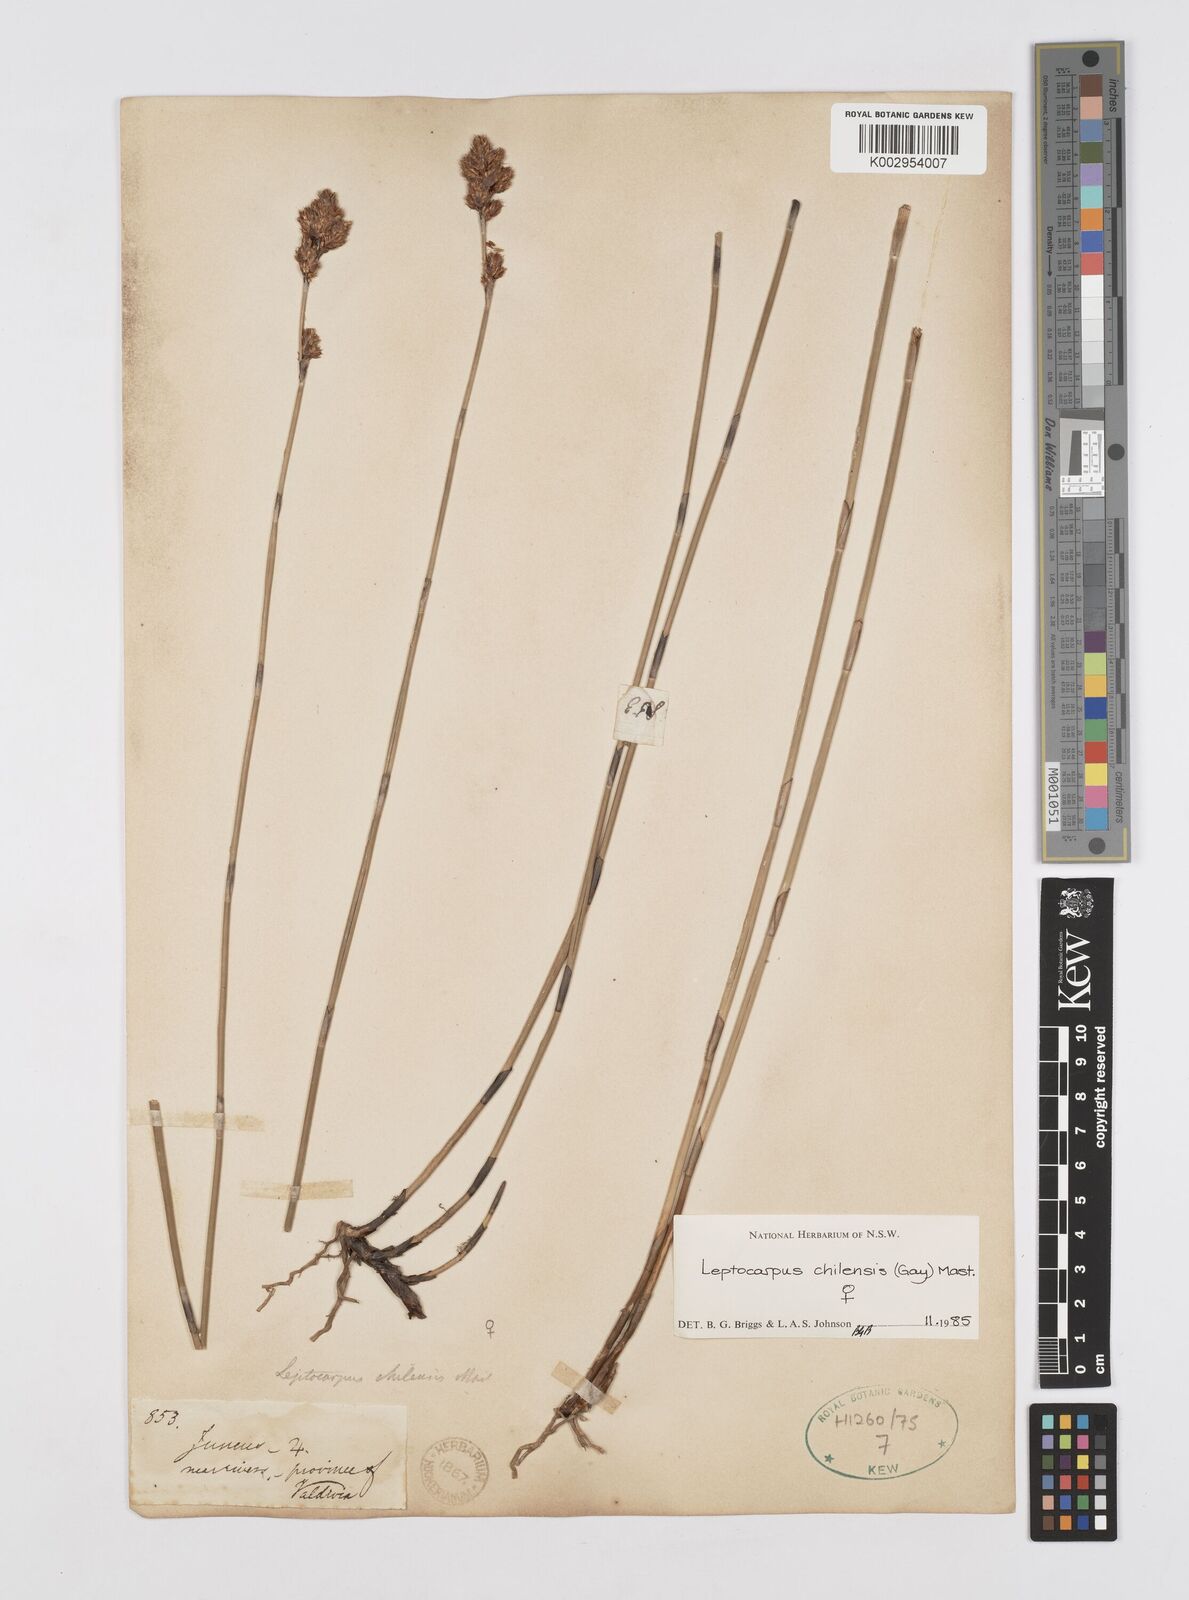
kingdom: Plantae
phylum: Tracheophyta
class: Liliopsida
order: Poales
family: Restionaceae
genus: Apodasmia
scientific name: Apodasmia chilensis
